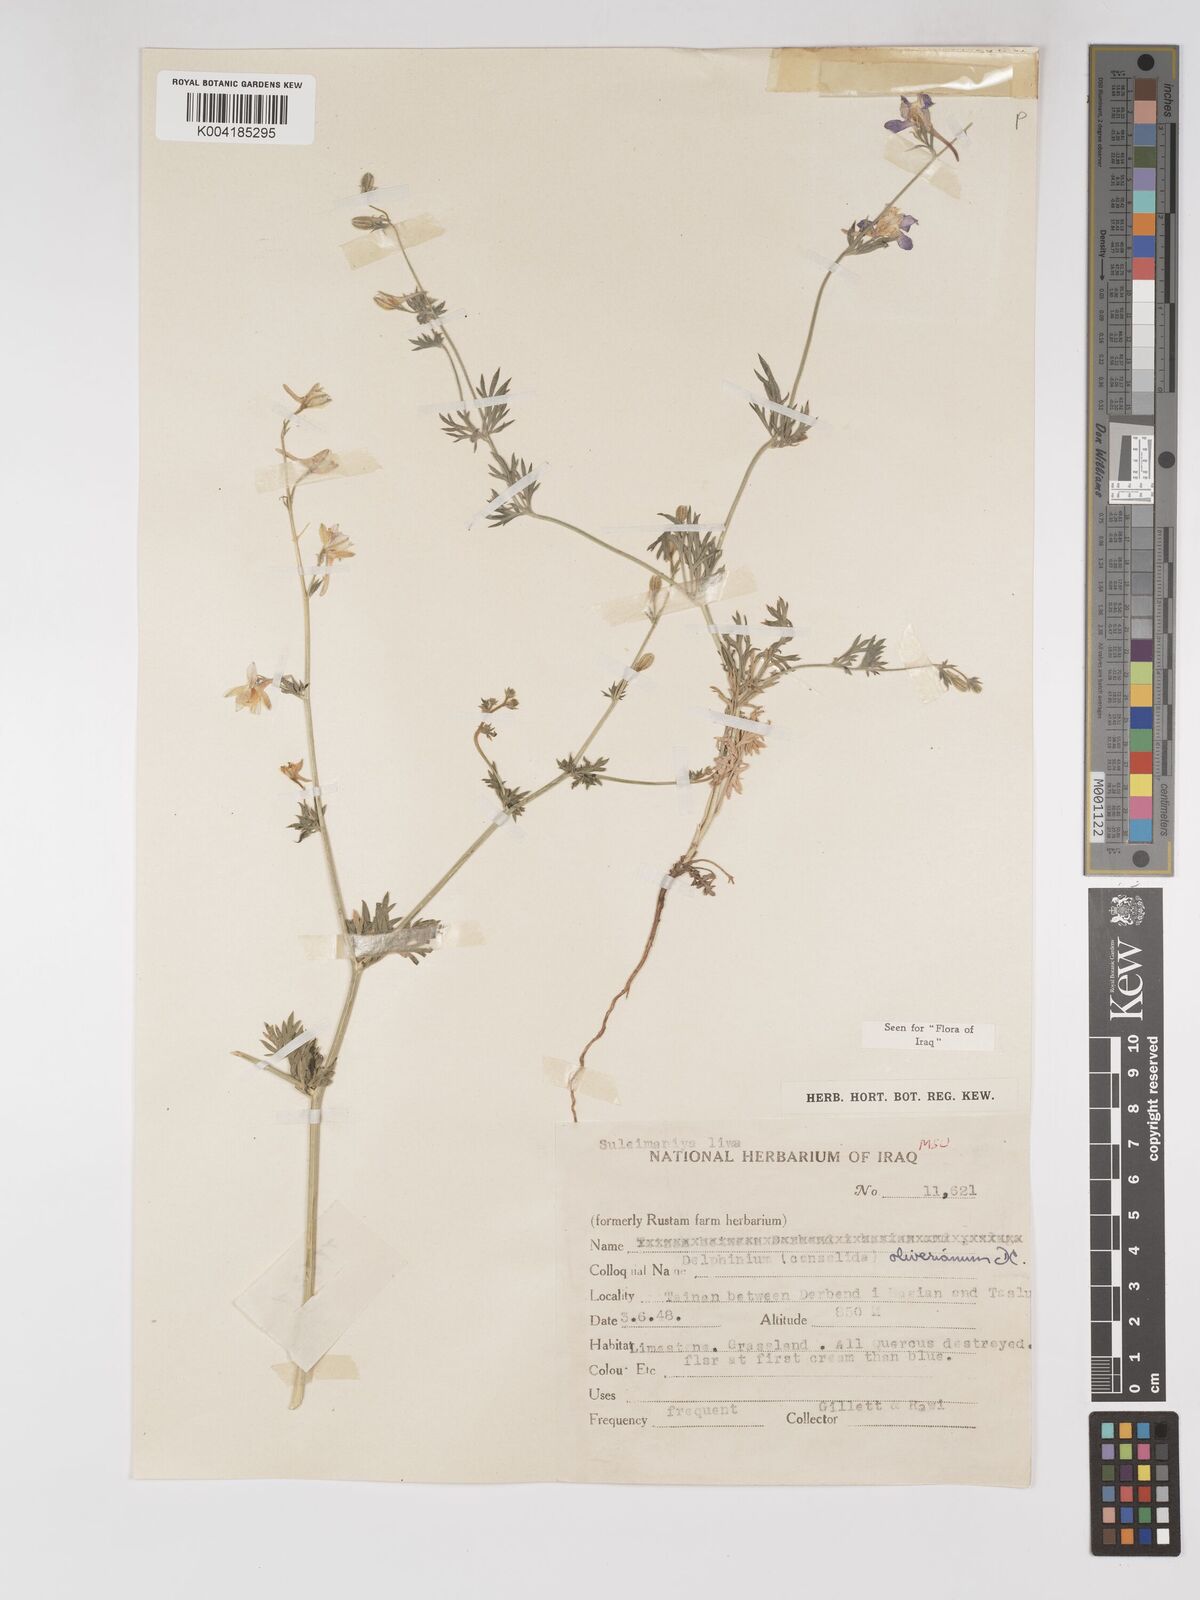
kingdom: Plantae
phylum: Tracheophyta
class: Magnoliopsida
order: Ranunculales
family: Ranunculaceae
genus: Delphinium
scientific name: Delphinium oliverianum
